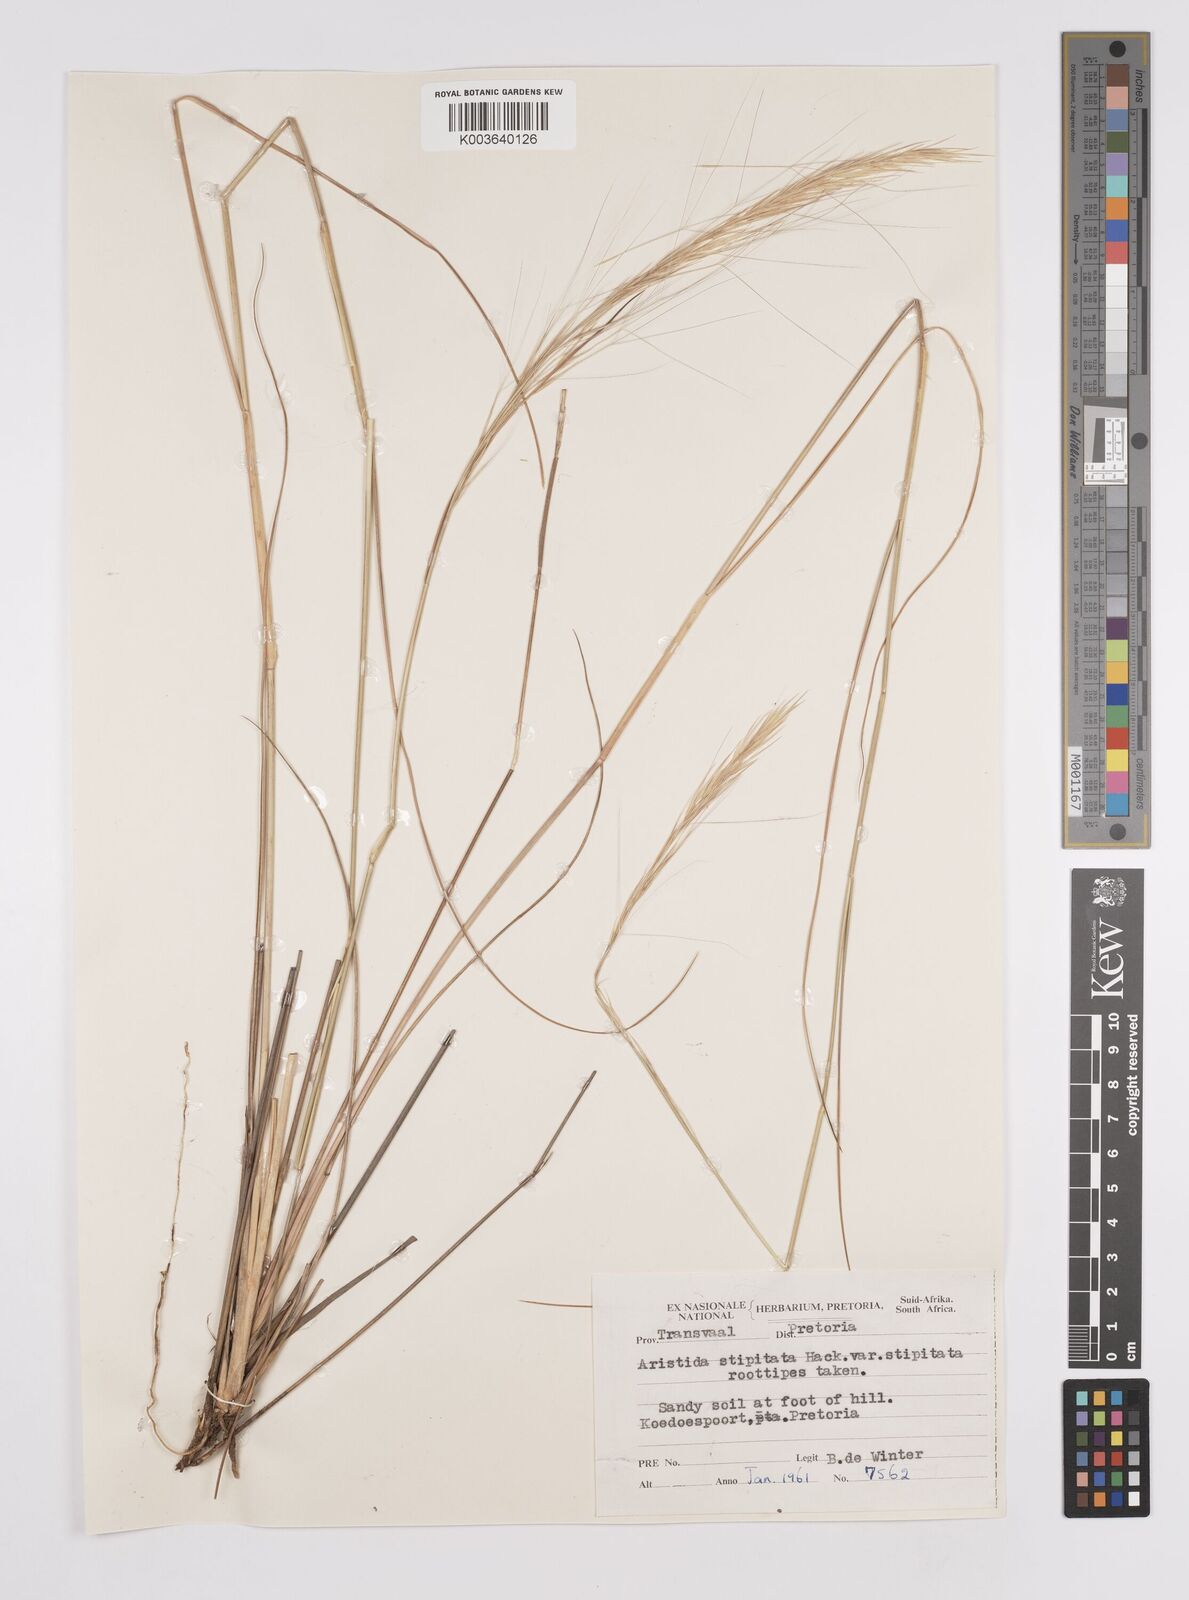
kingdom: Plantae
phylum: Tracheophyta
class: Liliopsida
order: Poales
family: Poaceae
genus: Aristida
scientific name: Aristida stipitata
